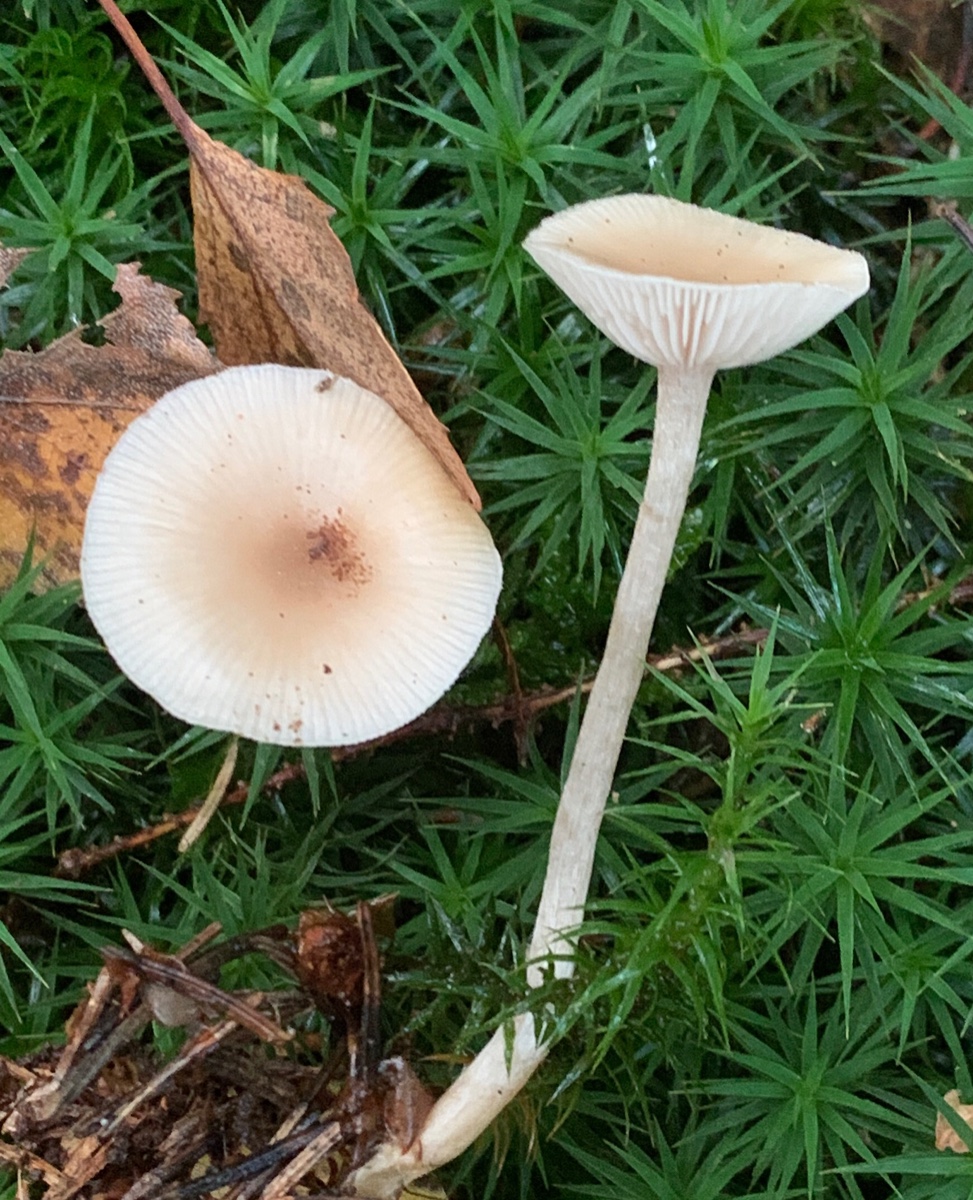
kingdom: Fungi
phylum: Basidiomycota
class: Agaricomycetes
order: Agaricales
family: Tricholomataceae
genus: Clitocybe
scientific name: Clitocybe fragrans
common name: vellugtende tragthat
